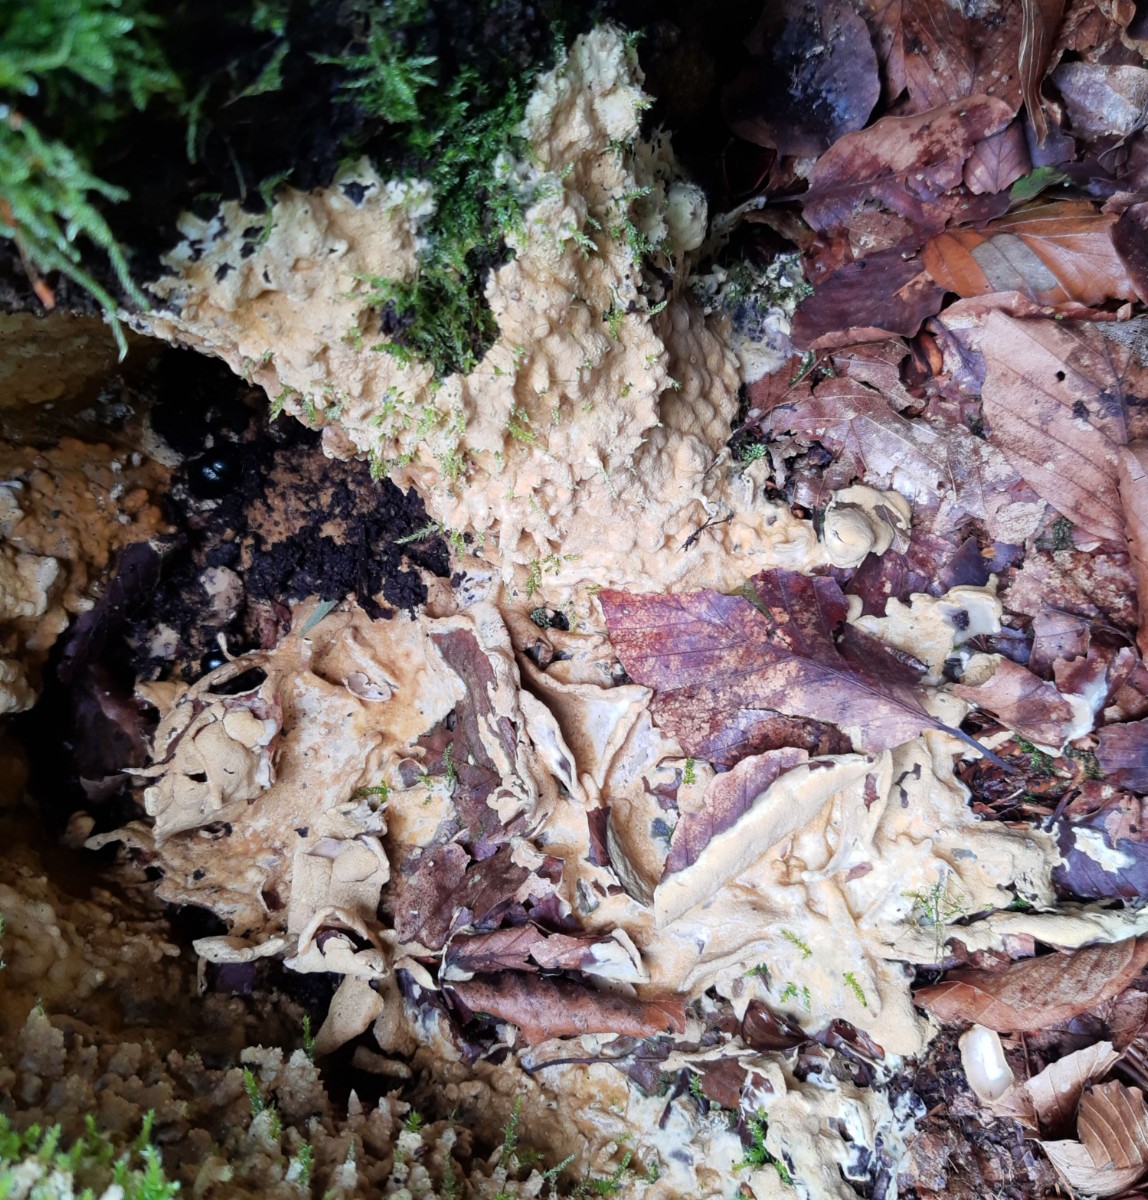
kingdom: Fungi
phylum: Ascomycota
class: Sordariomycetes
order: Hypocreales
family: Hypocreaceae
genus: Trichoderma
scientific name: Trichoderma citrinum
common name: udbredt kødkerne
